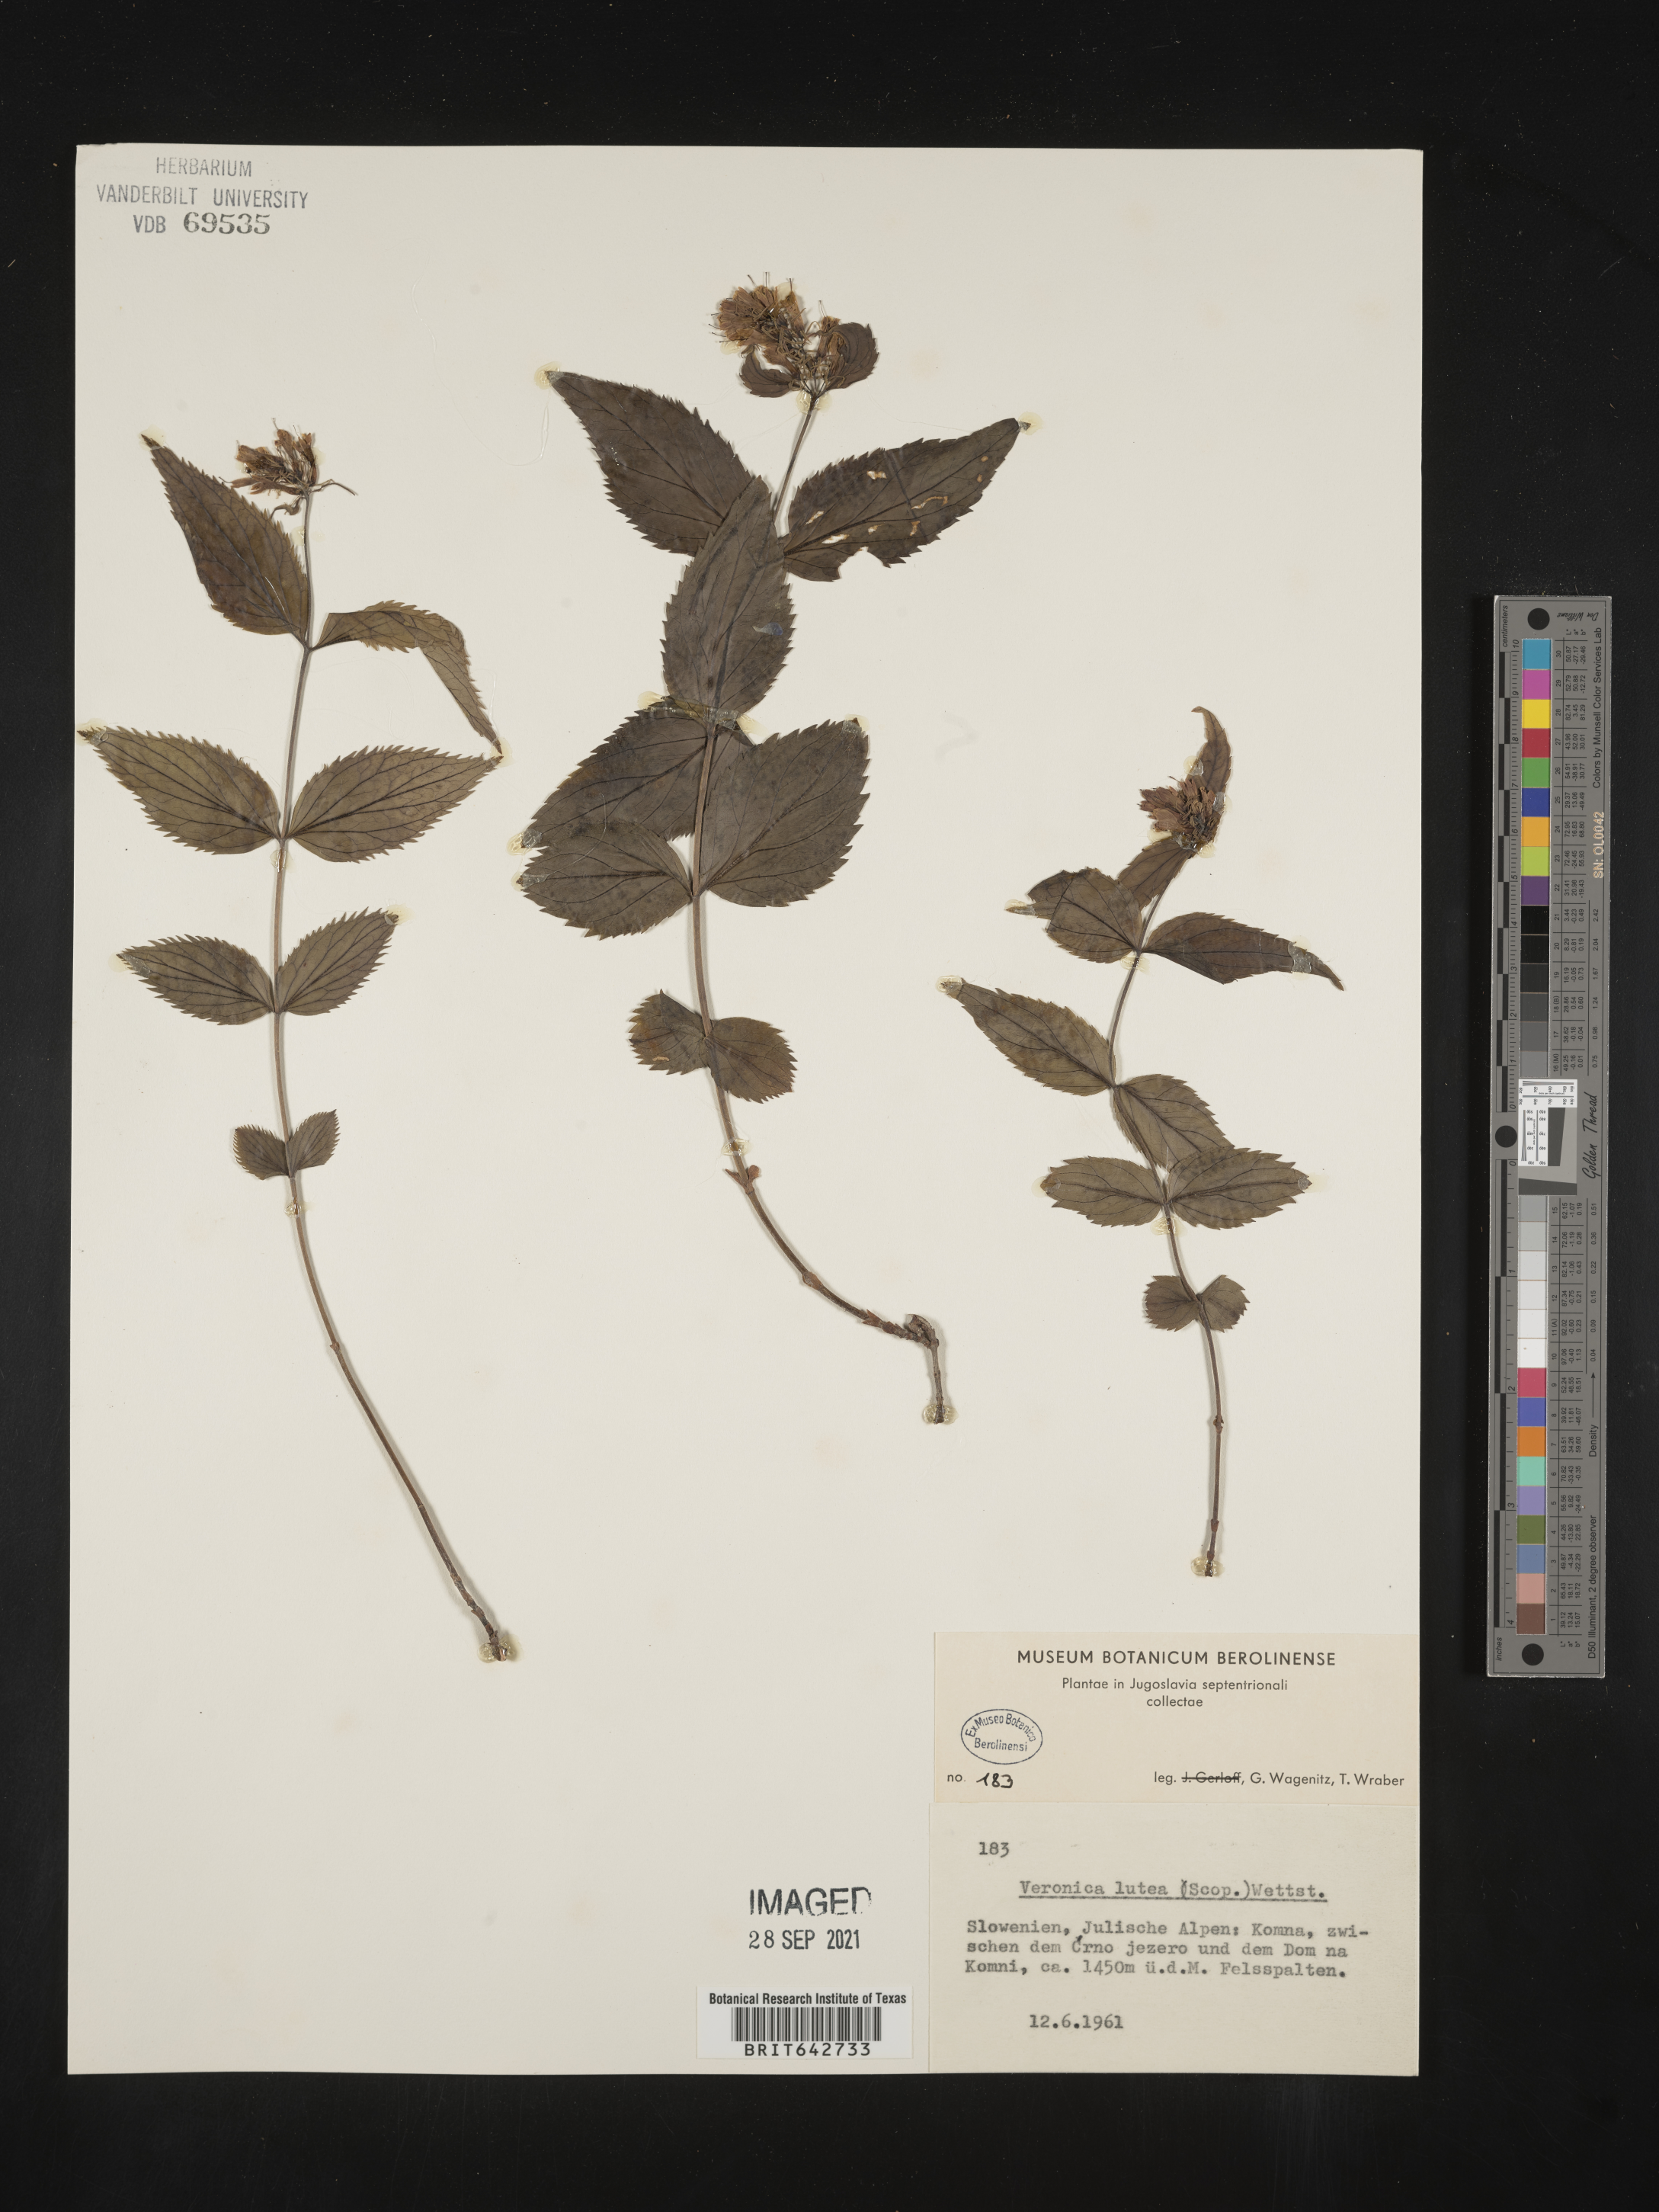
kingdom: Plantae
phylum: Tracheophyta
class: Magnoliopsida
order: Lamiales
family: Plantaginaceae
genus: Veronica
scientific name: Veronica
